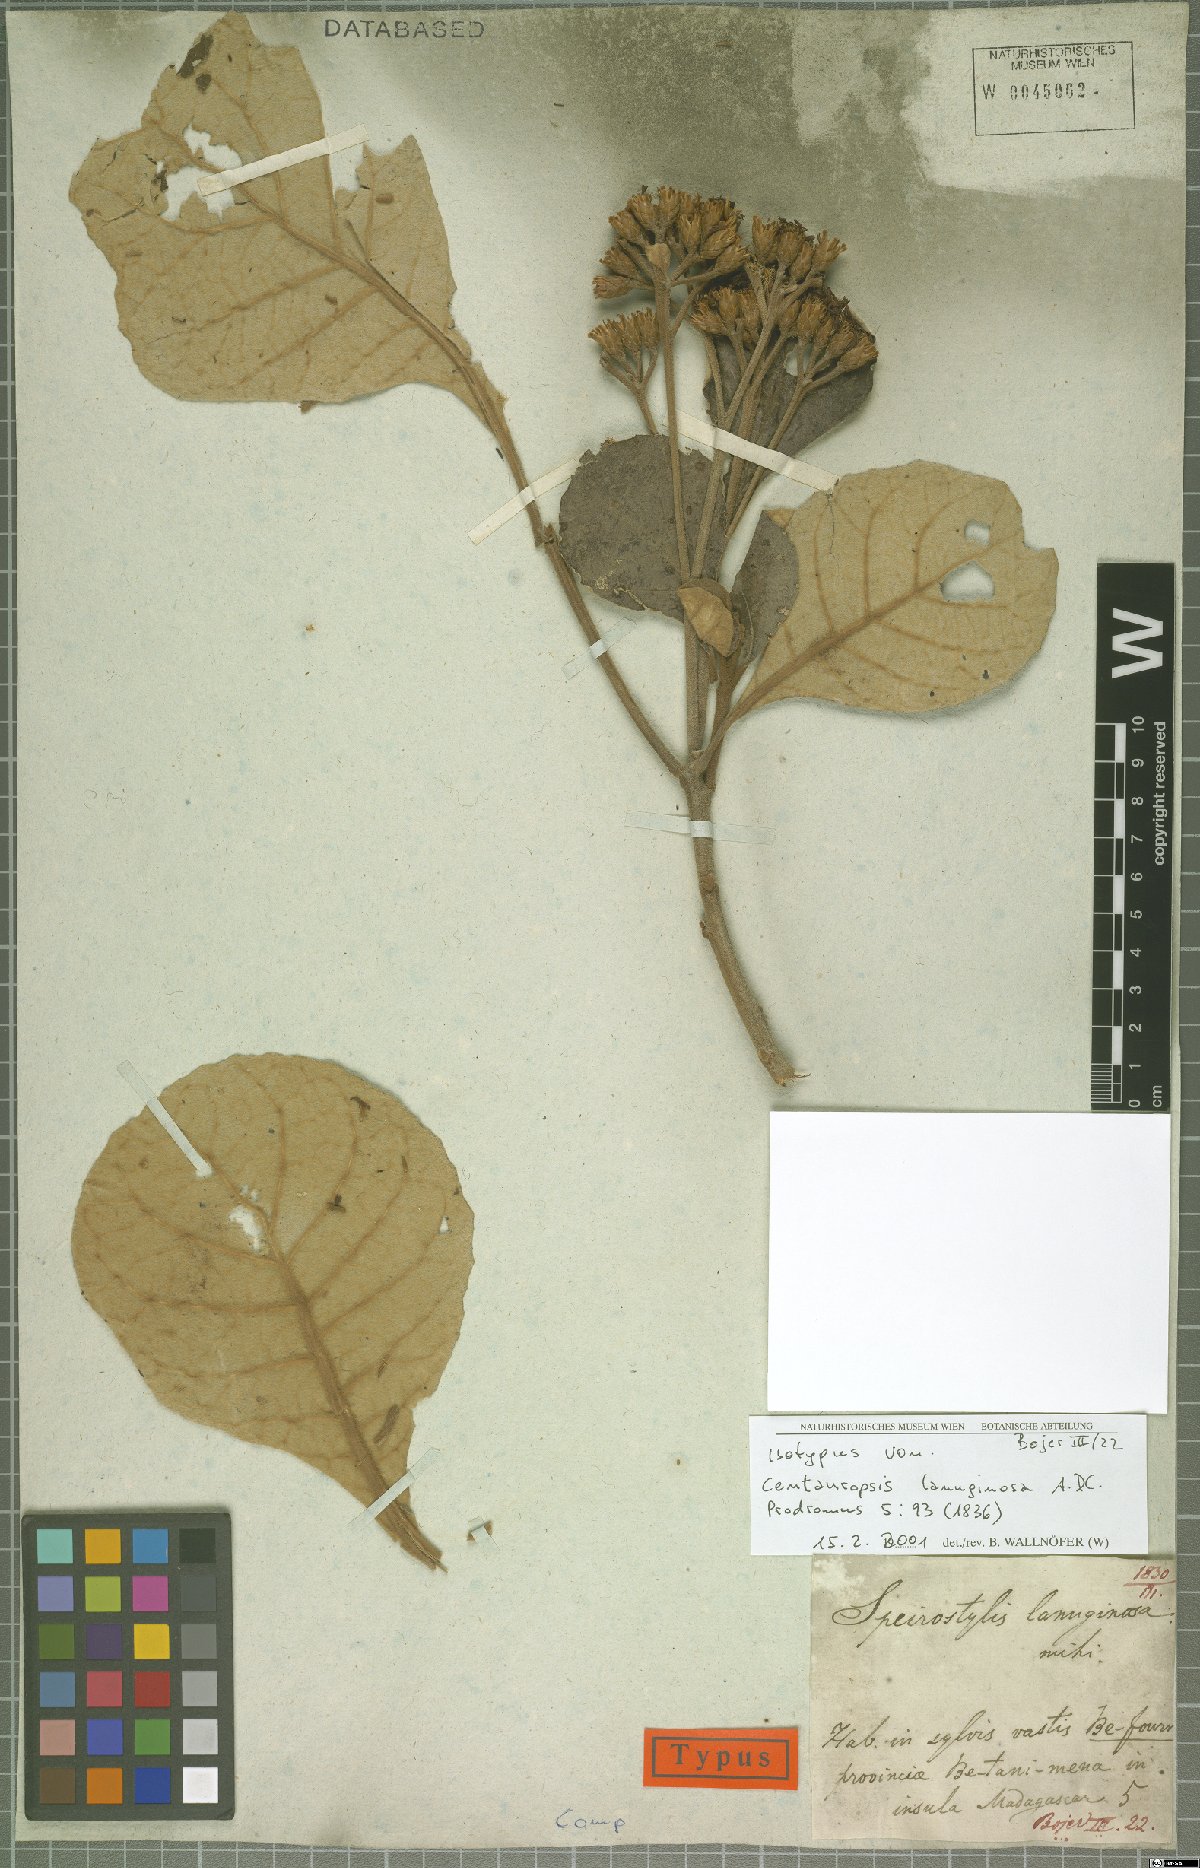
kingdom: Plantae
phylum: Tracheophyta
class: Magnoliopsida
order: Asterales
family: Asteraceae
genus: Oliganthes
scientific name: Oliganthes lanuginosa
